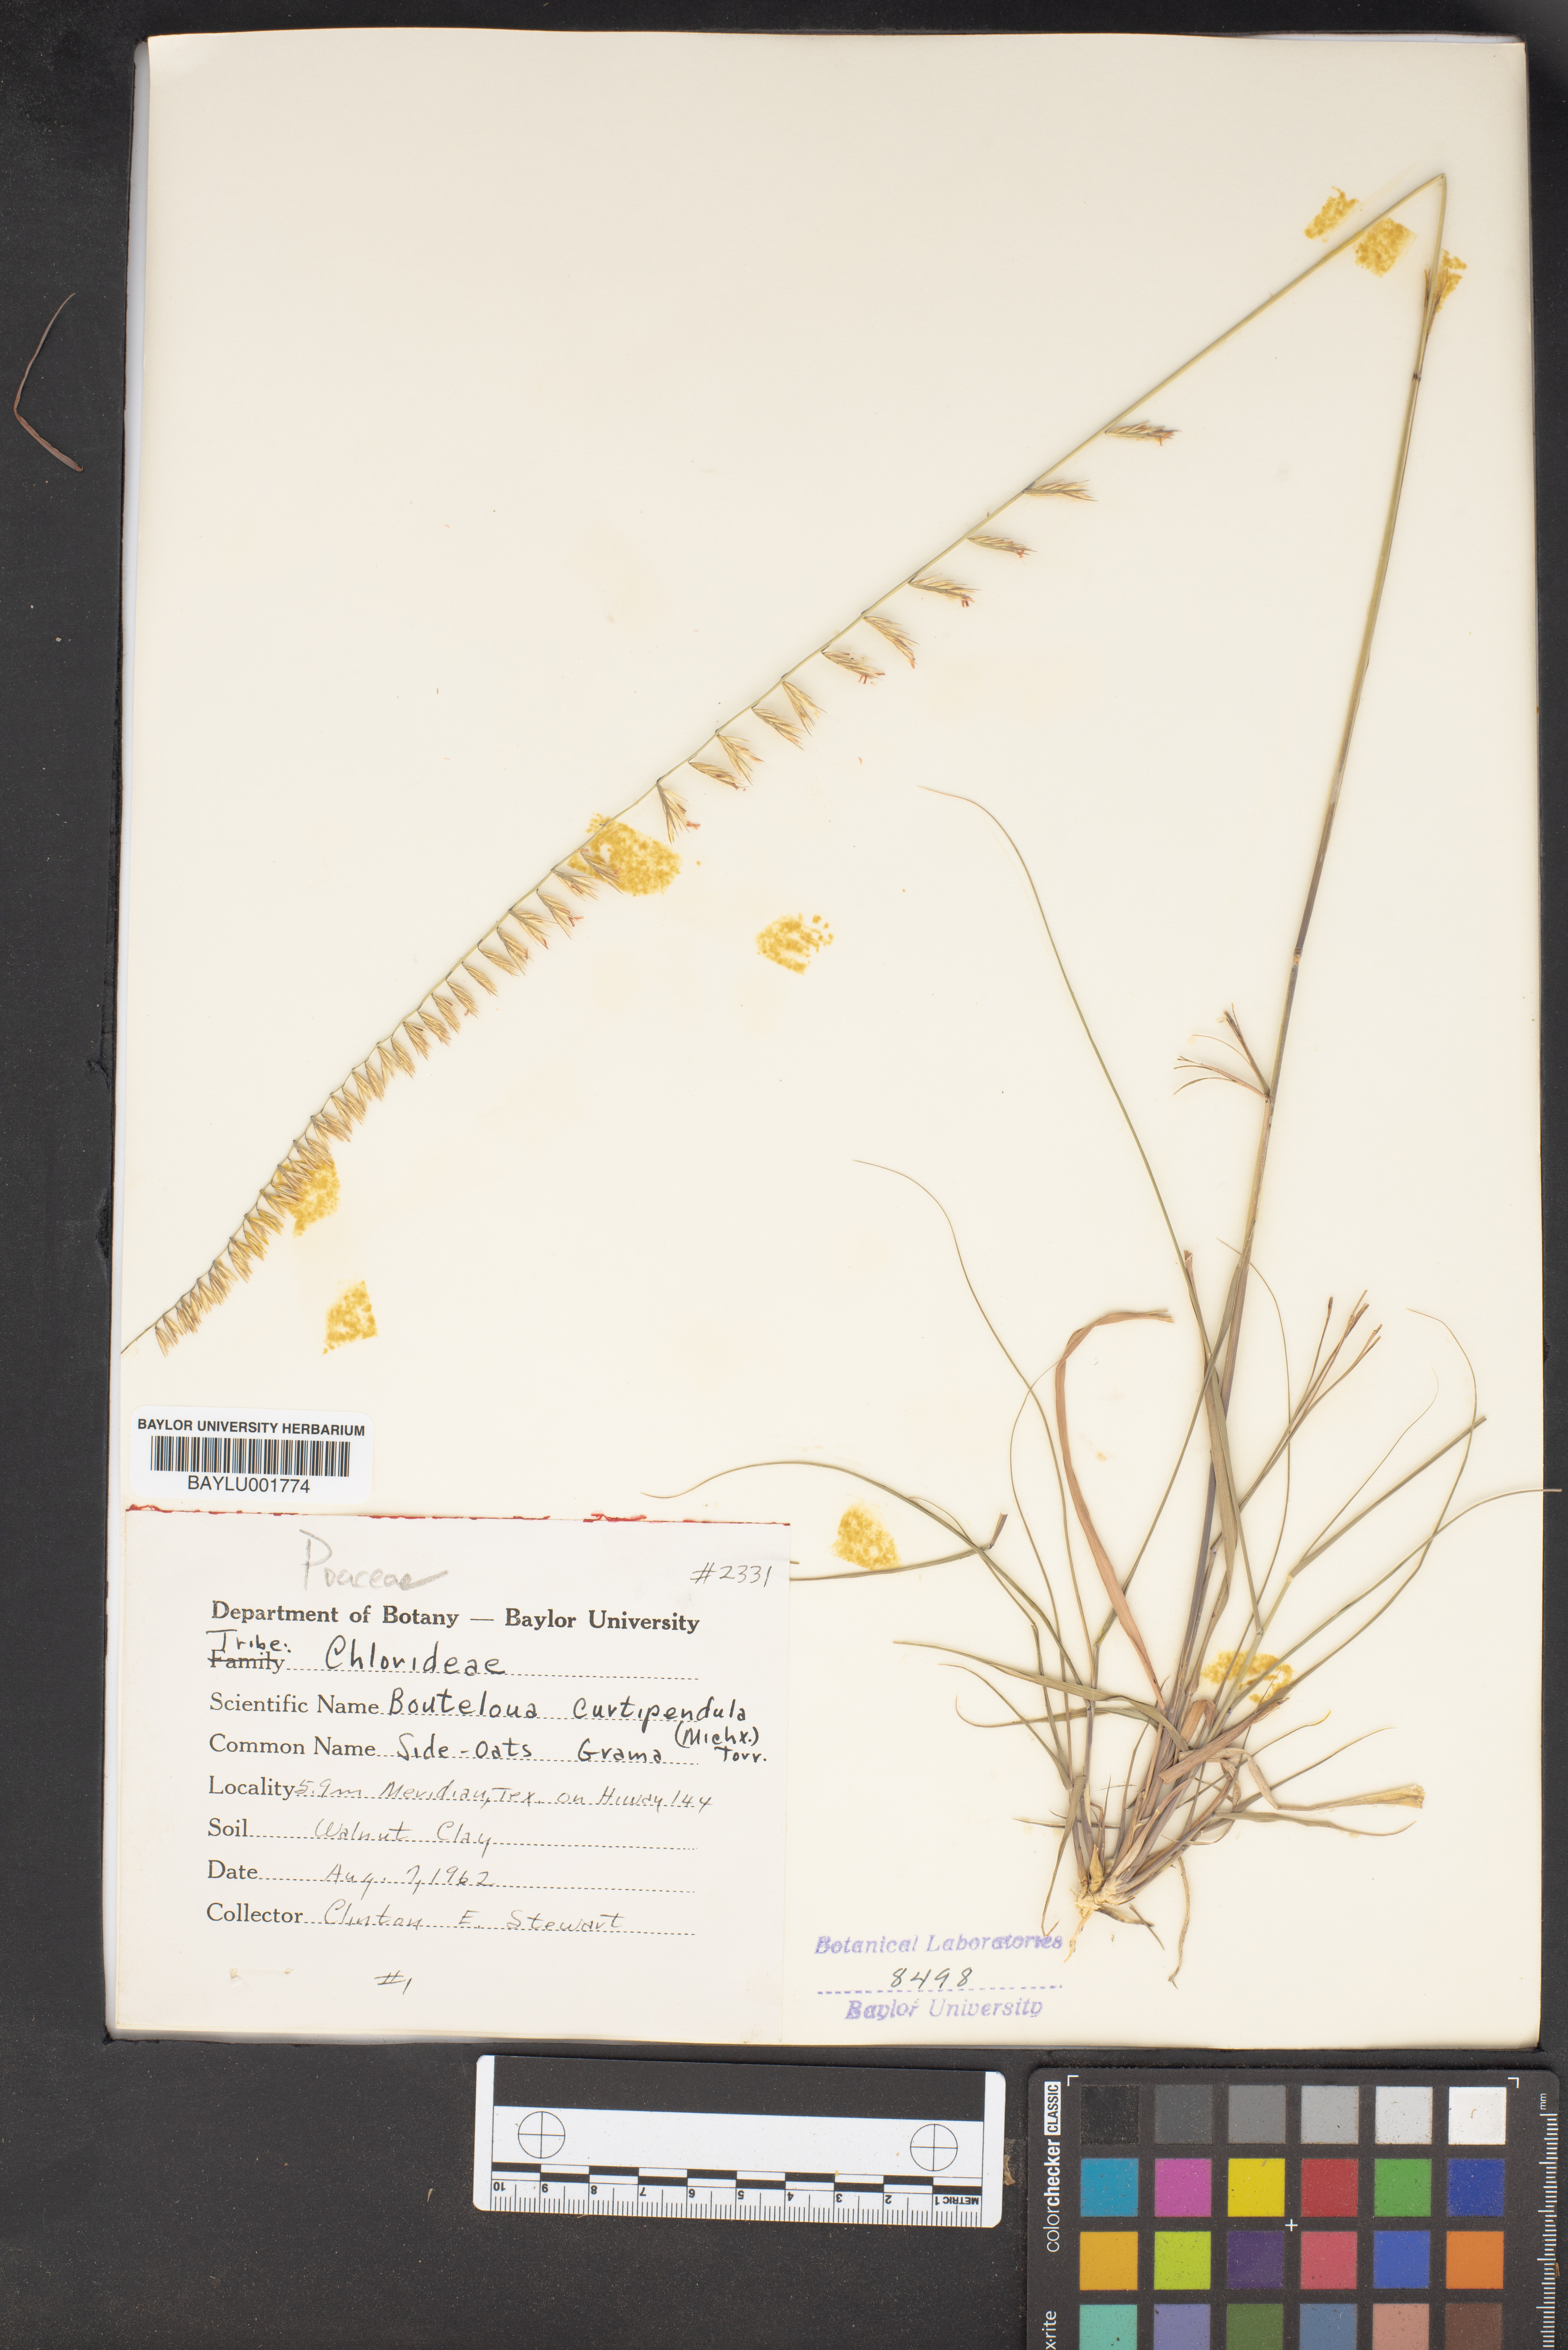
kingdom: Plantae
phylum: Tracheophyta
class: Liliopsida
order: Poales
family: Poaceae
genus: Bouteloua
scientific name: Bouteloua curtipendula
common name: Side-oats grama
